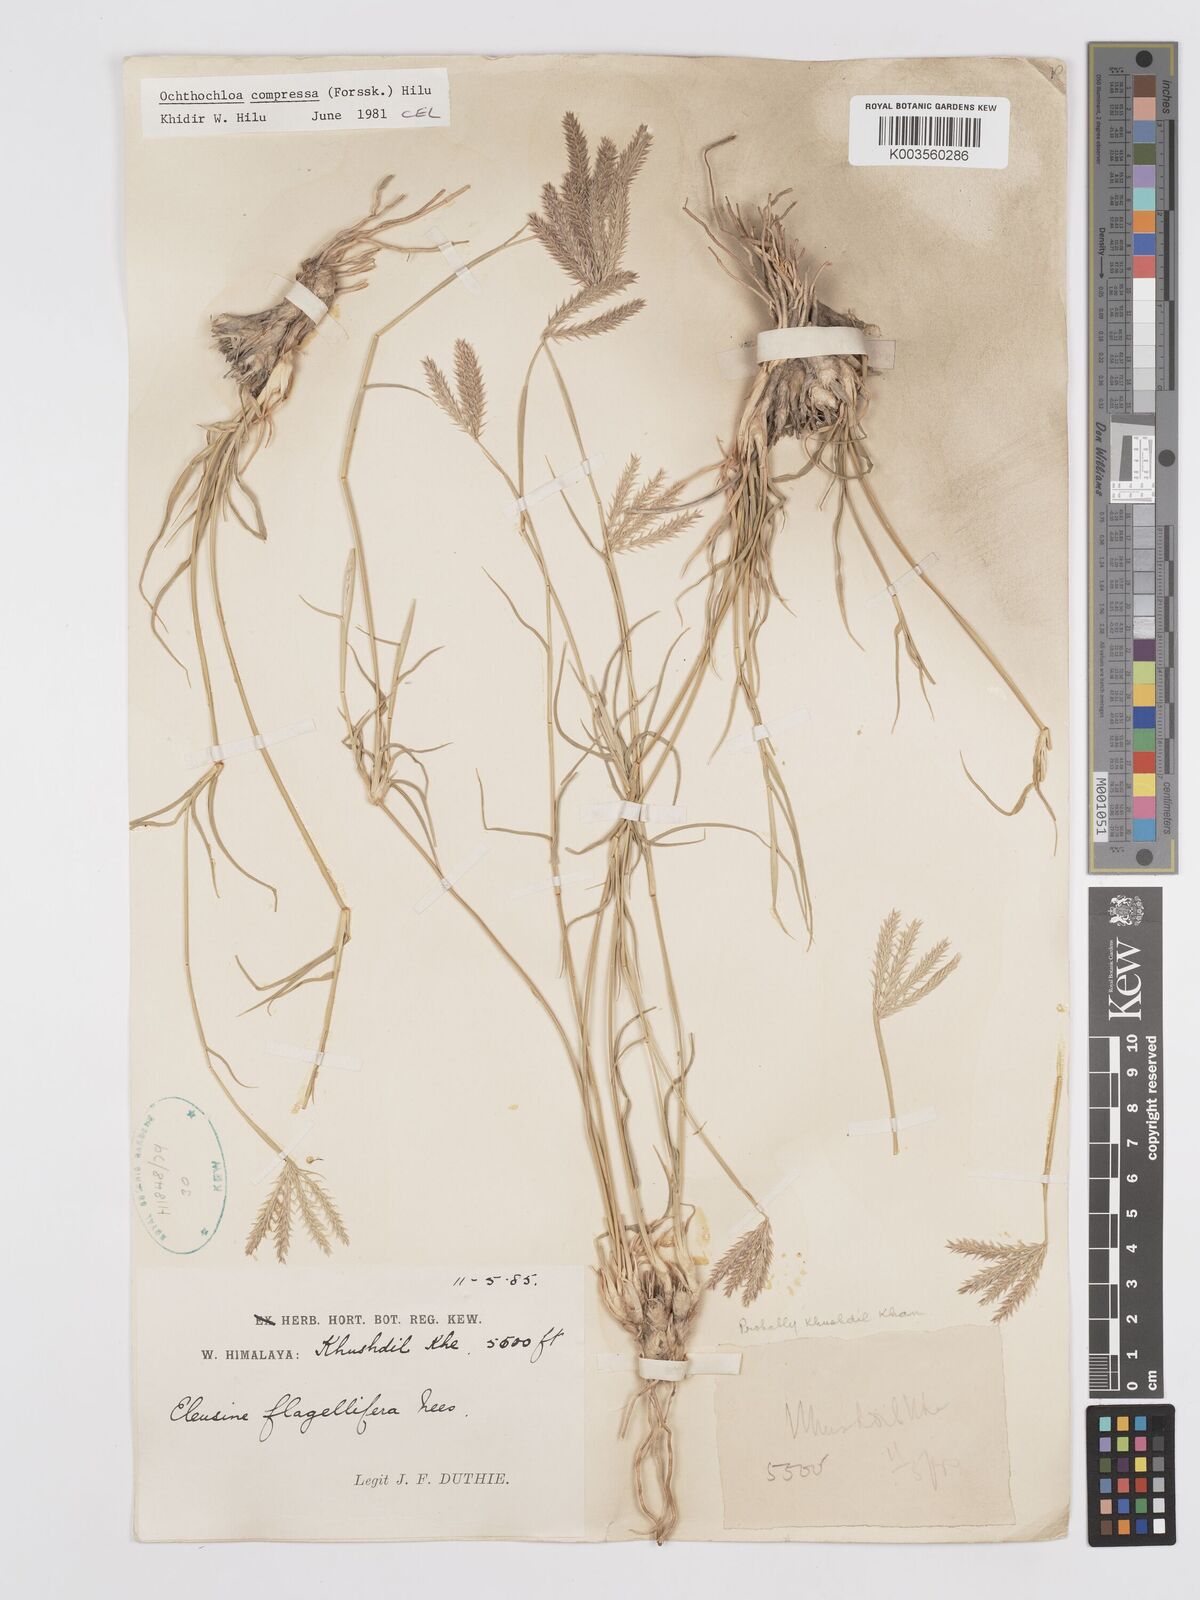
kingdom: Plantae
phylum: Tracheophyta
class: Liliopsida
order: Poales
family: Poaceae
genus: Chloris
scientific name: Chloris flagellifera
